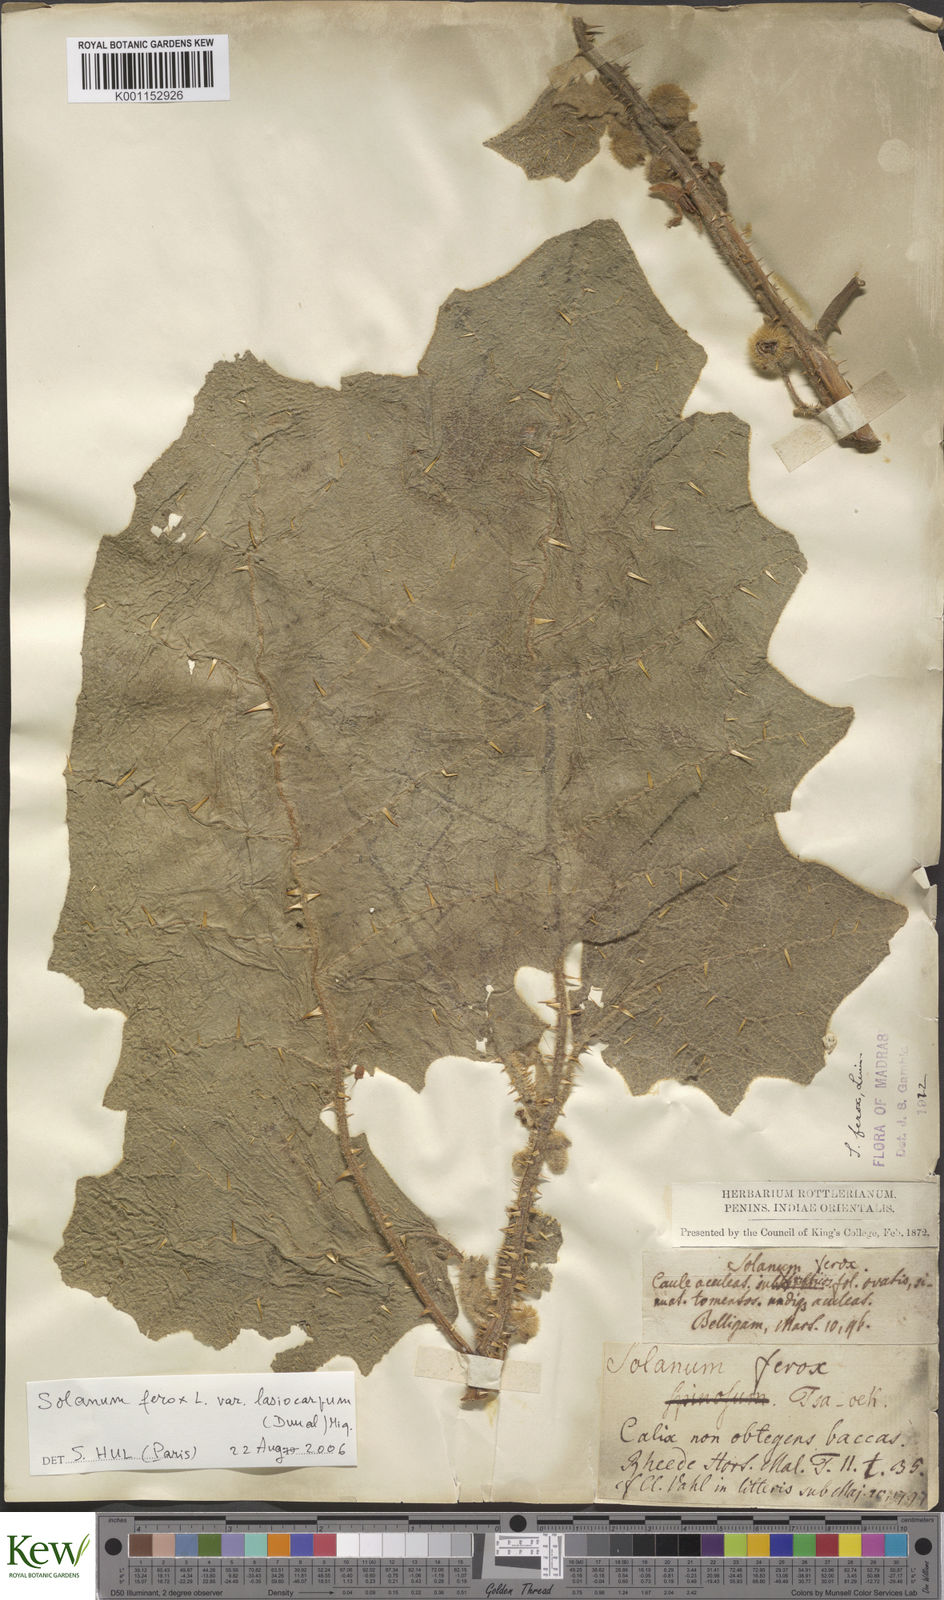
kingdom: Plantae
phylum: Tracheophyta
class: Magnoliopsida
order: Solanales
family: Solanaceae
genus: Solanum
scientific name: Solanum
